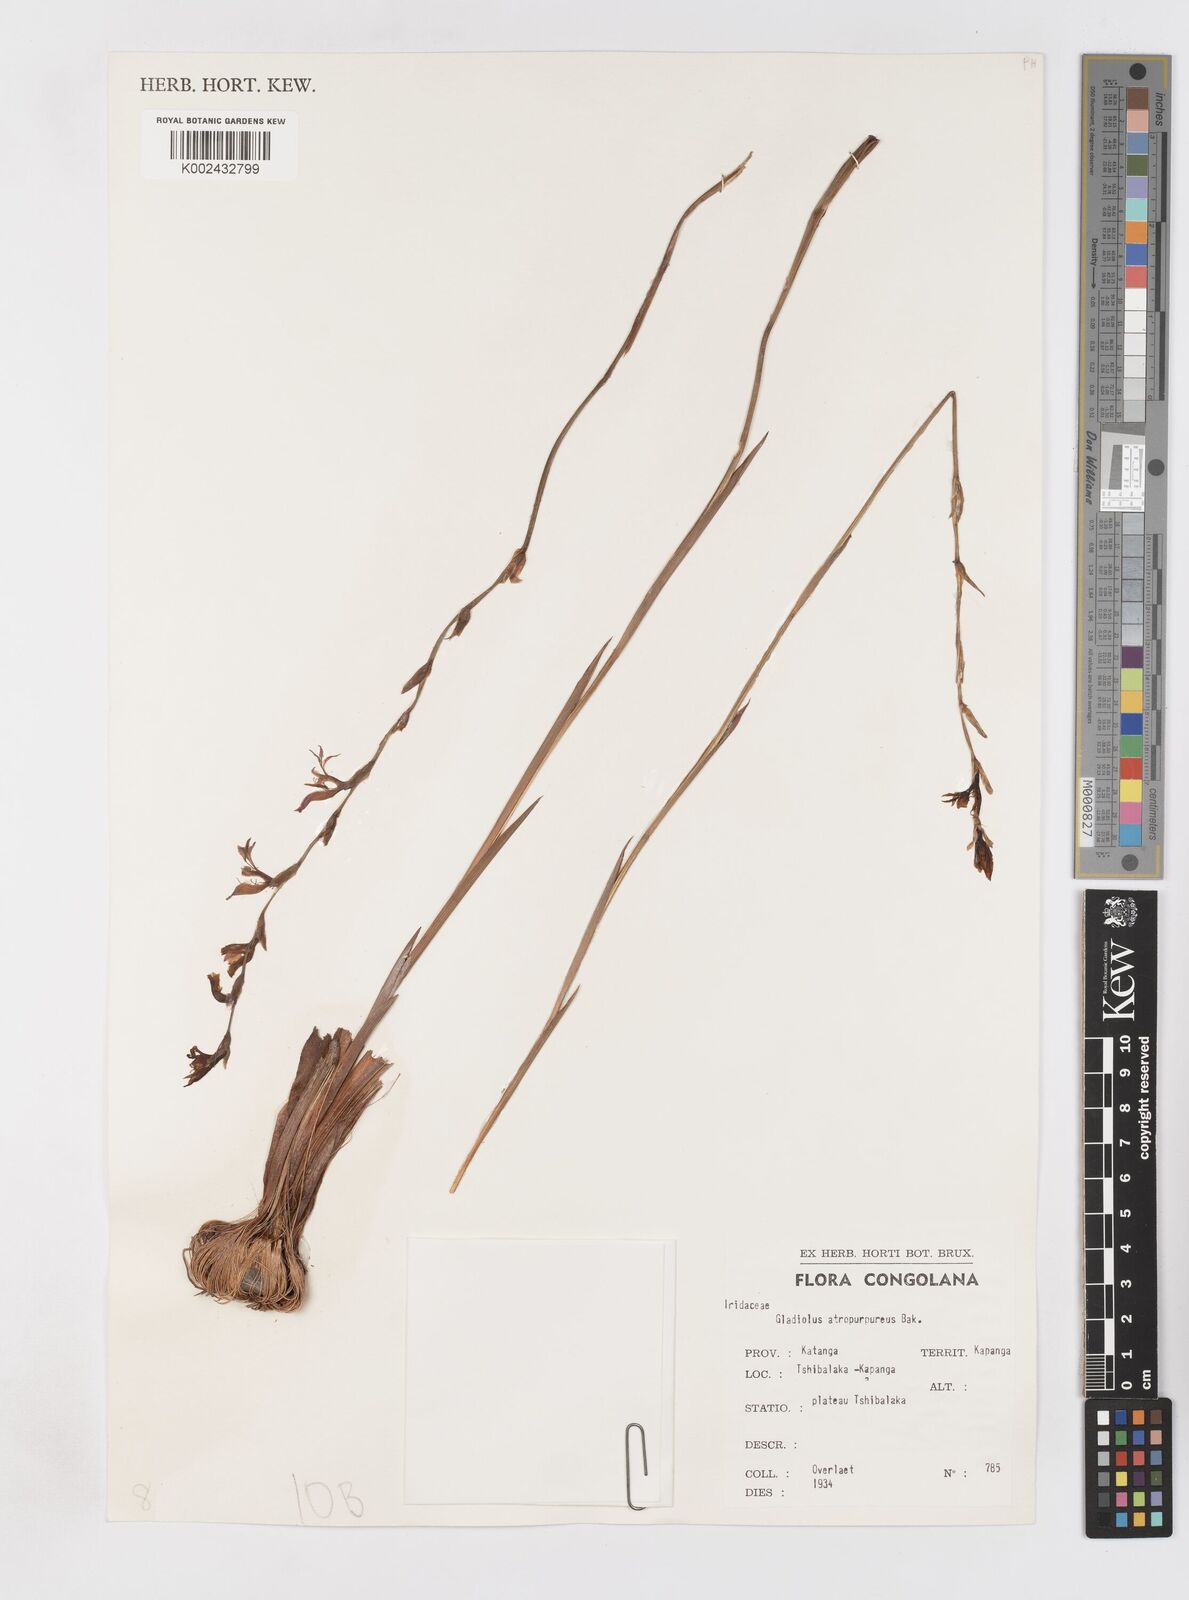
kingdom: Plantae
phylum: Tracheophyta
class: Liliopsida
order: Asparagales
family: Iridaceae
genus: Gladiolus
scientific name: Gladiolus atropurpureus
